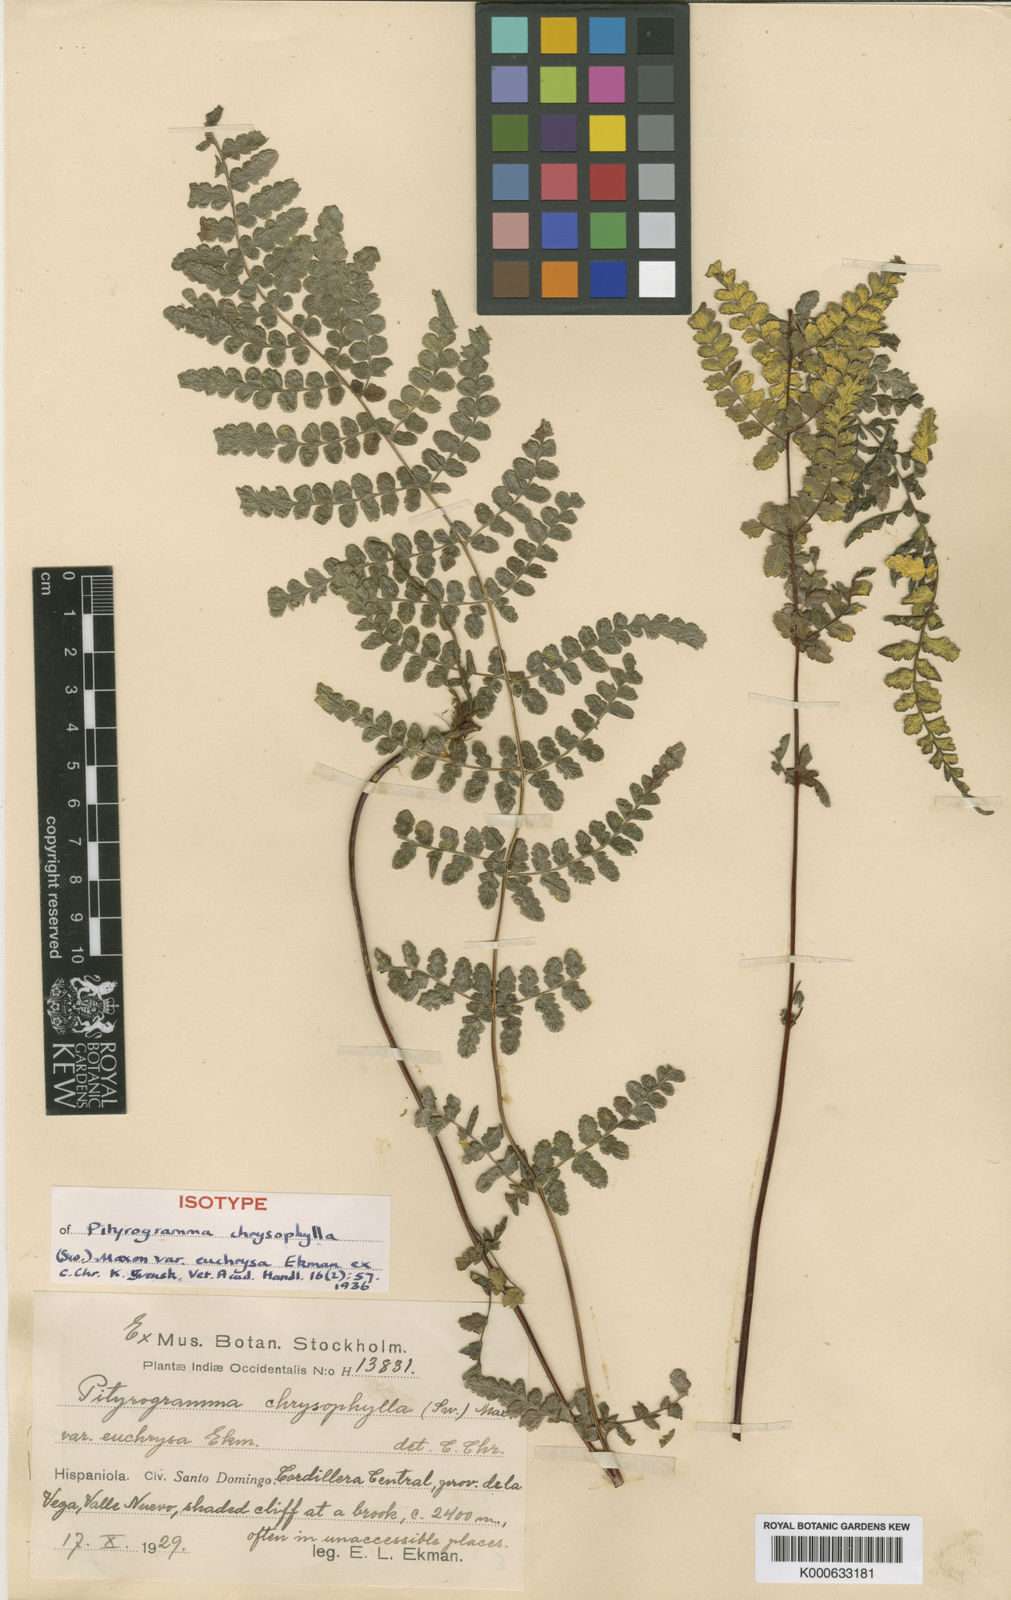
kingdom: Plantae
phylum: Tracheophyta
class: Polypodiopsida
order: Polypodiales
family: Pteridaceae
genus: Pityrogramma
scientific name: Pityrogramma euchrysa
